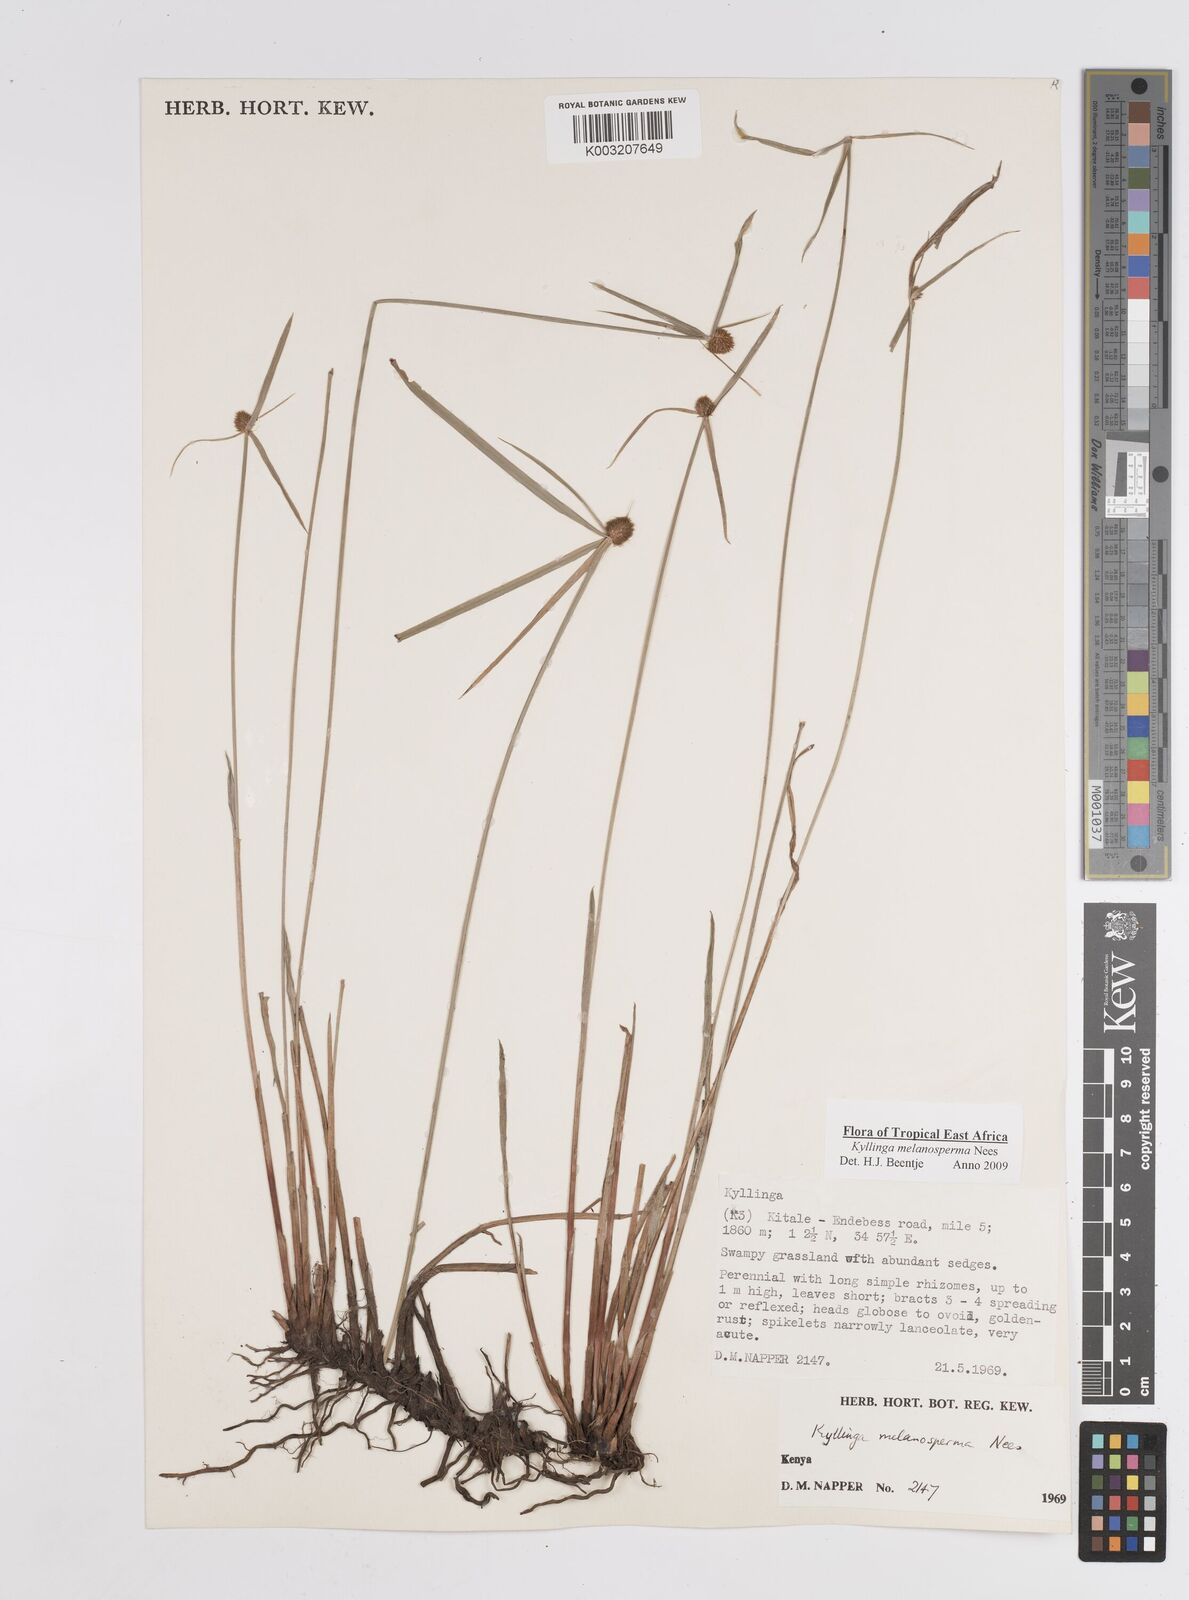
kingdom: Plantae
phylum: Tracheophyta
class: Liliopsida
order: Poales
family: Cyperaceae
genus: Cyperus
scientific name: Cyperus melanospermus
